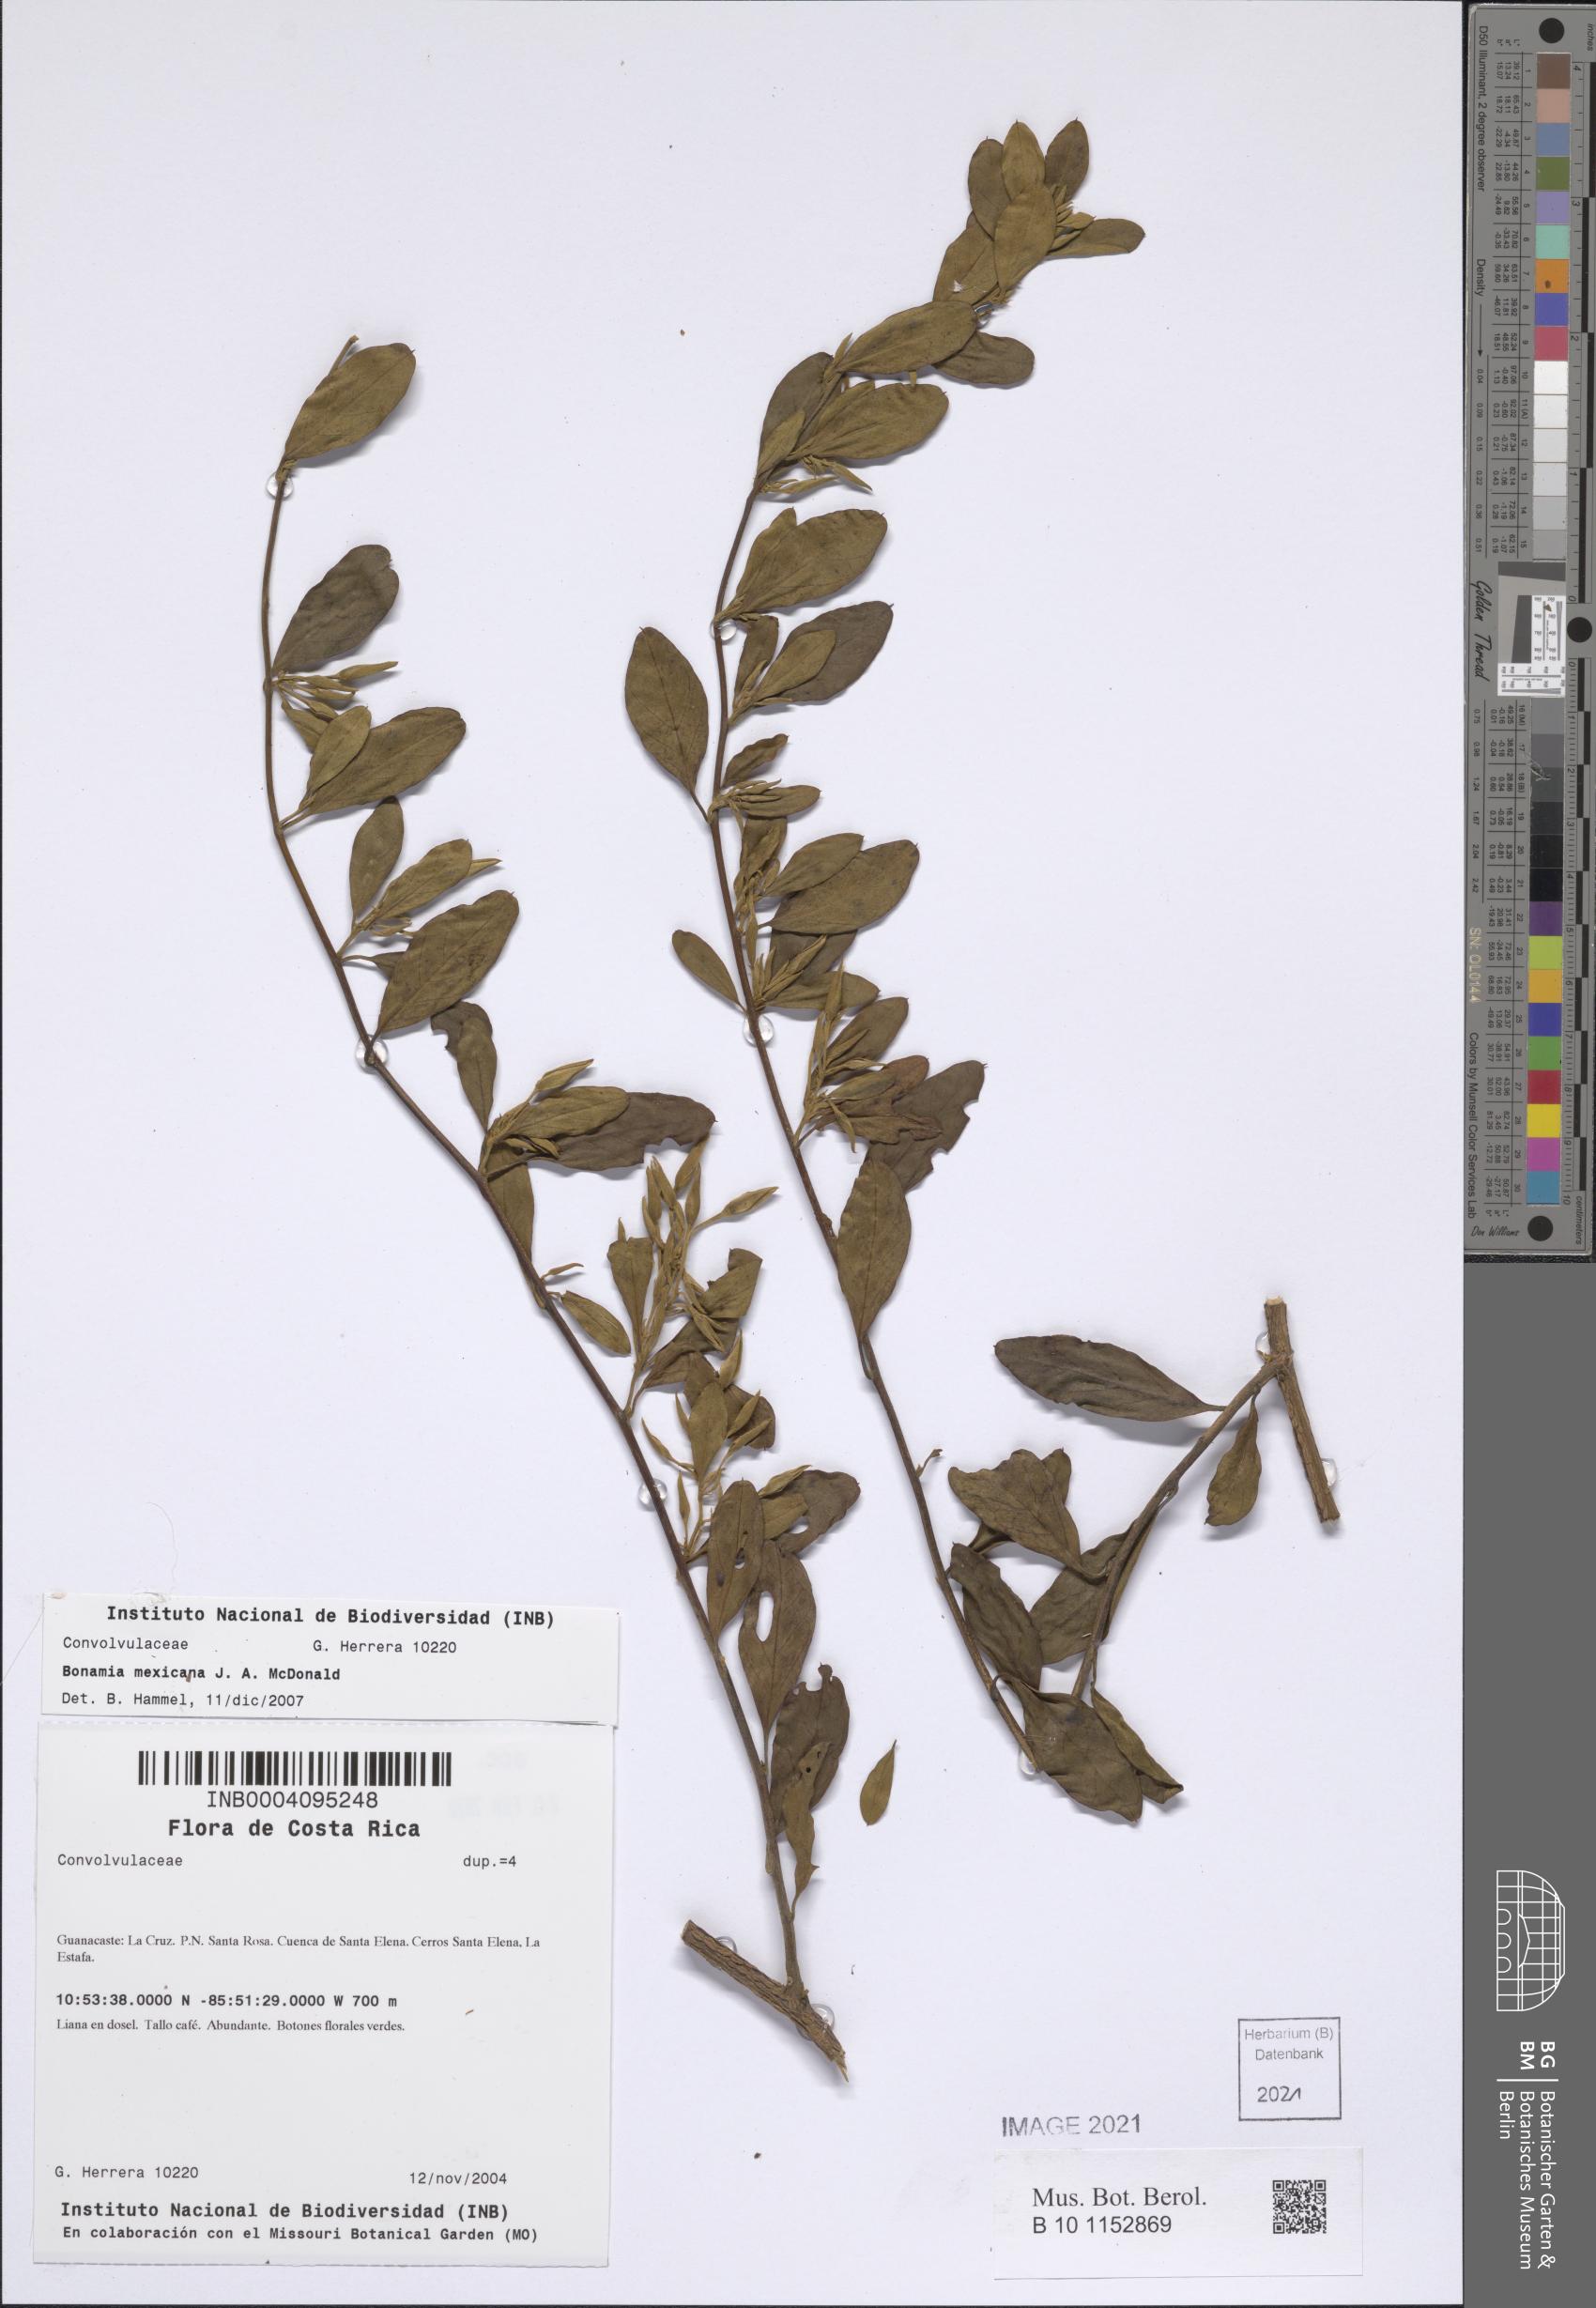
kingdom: Plantae
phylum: Tracheophyta
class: Magnoliopsida
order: Solanales
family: Convolvulaceae
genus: Bonamia
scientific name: Bonamia mexicana
